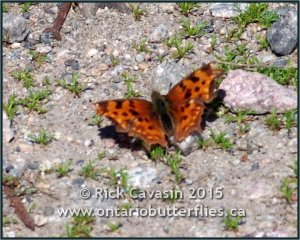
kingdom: Animalia
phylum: Arthropoda
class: Insecta
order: Lepidoptera
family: Nymphalidae
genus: Polygonia
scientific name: Polygonia satyrus
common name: Satyr Comma
